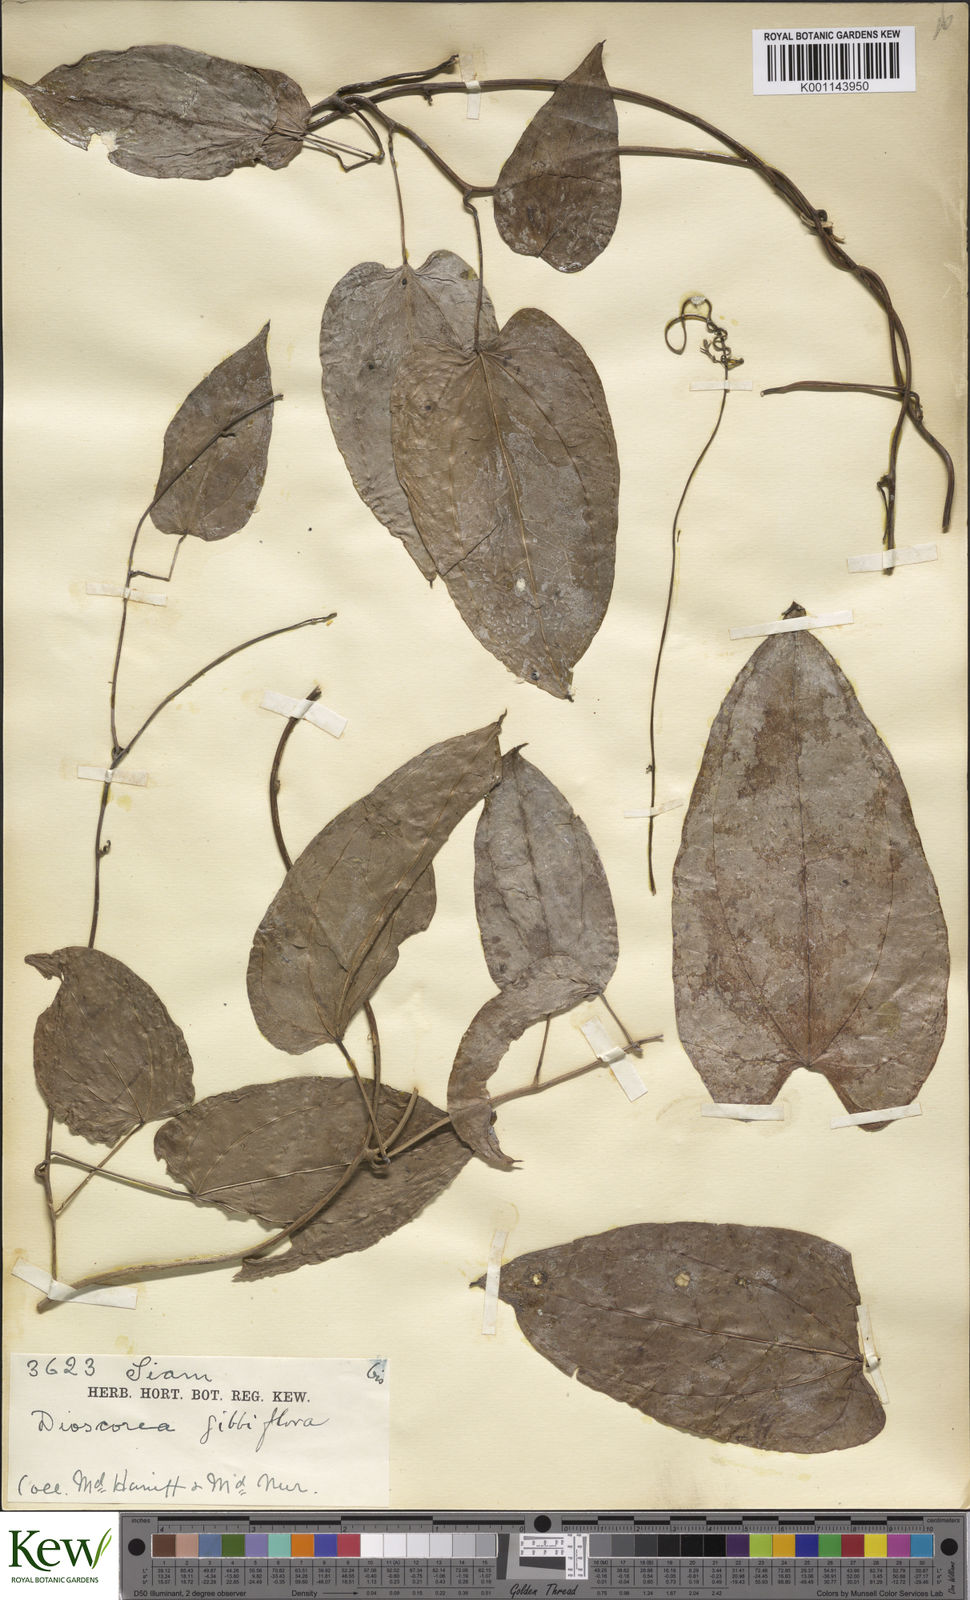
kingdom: Plantae
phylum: Tracheophyta
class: Liliopsida
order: Dioscoreales
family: Dioscoreaceae
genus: Dioscorea
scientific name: Dioscorea filiformis
